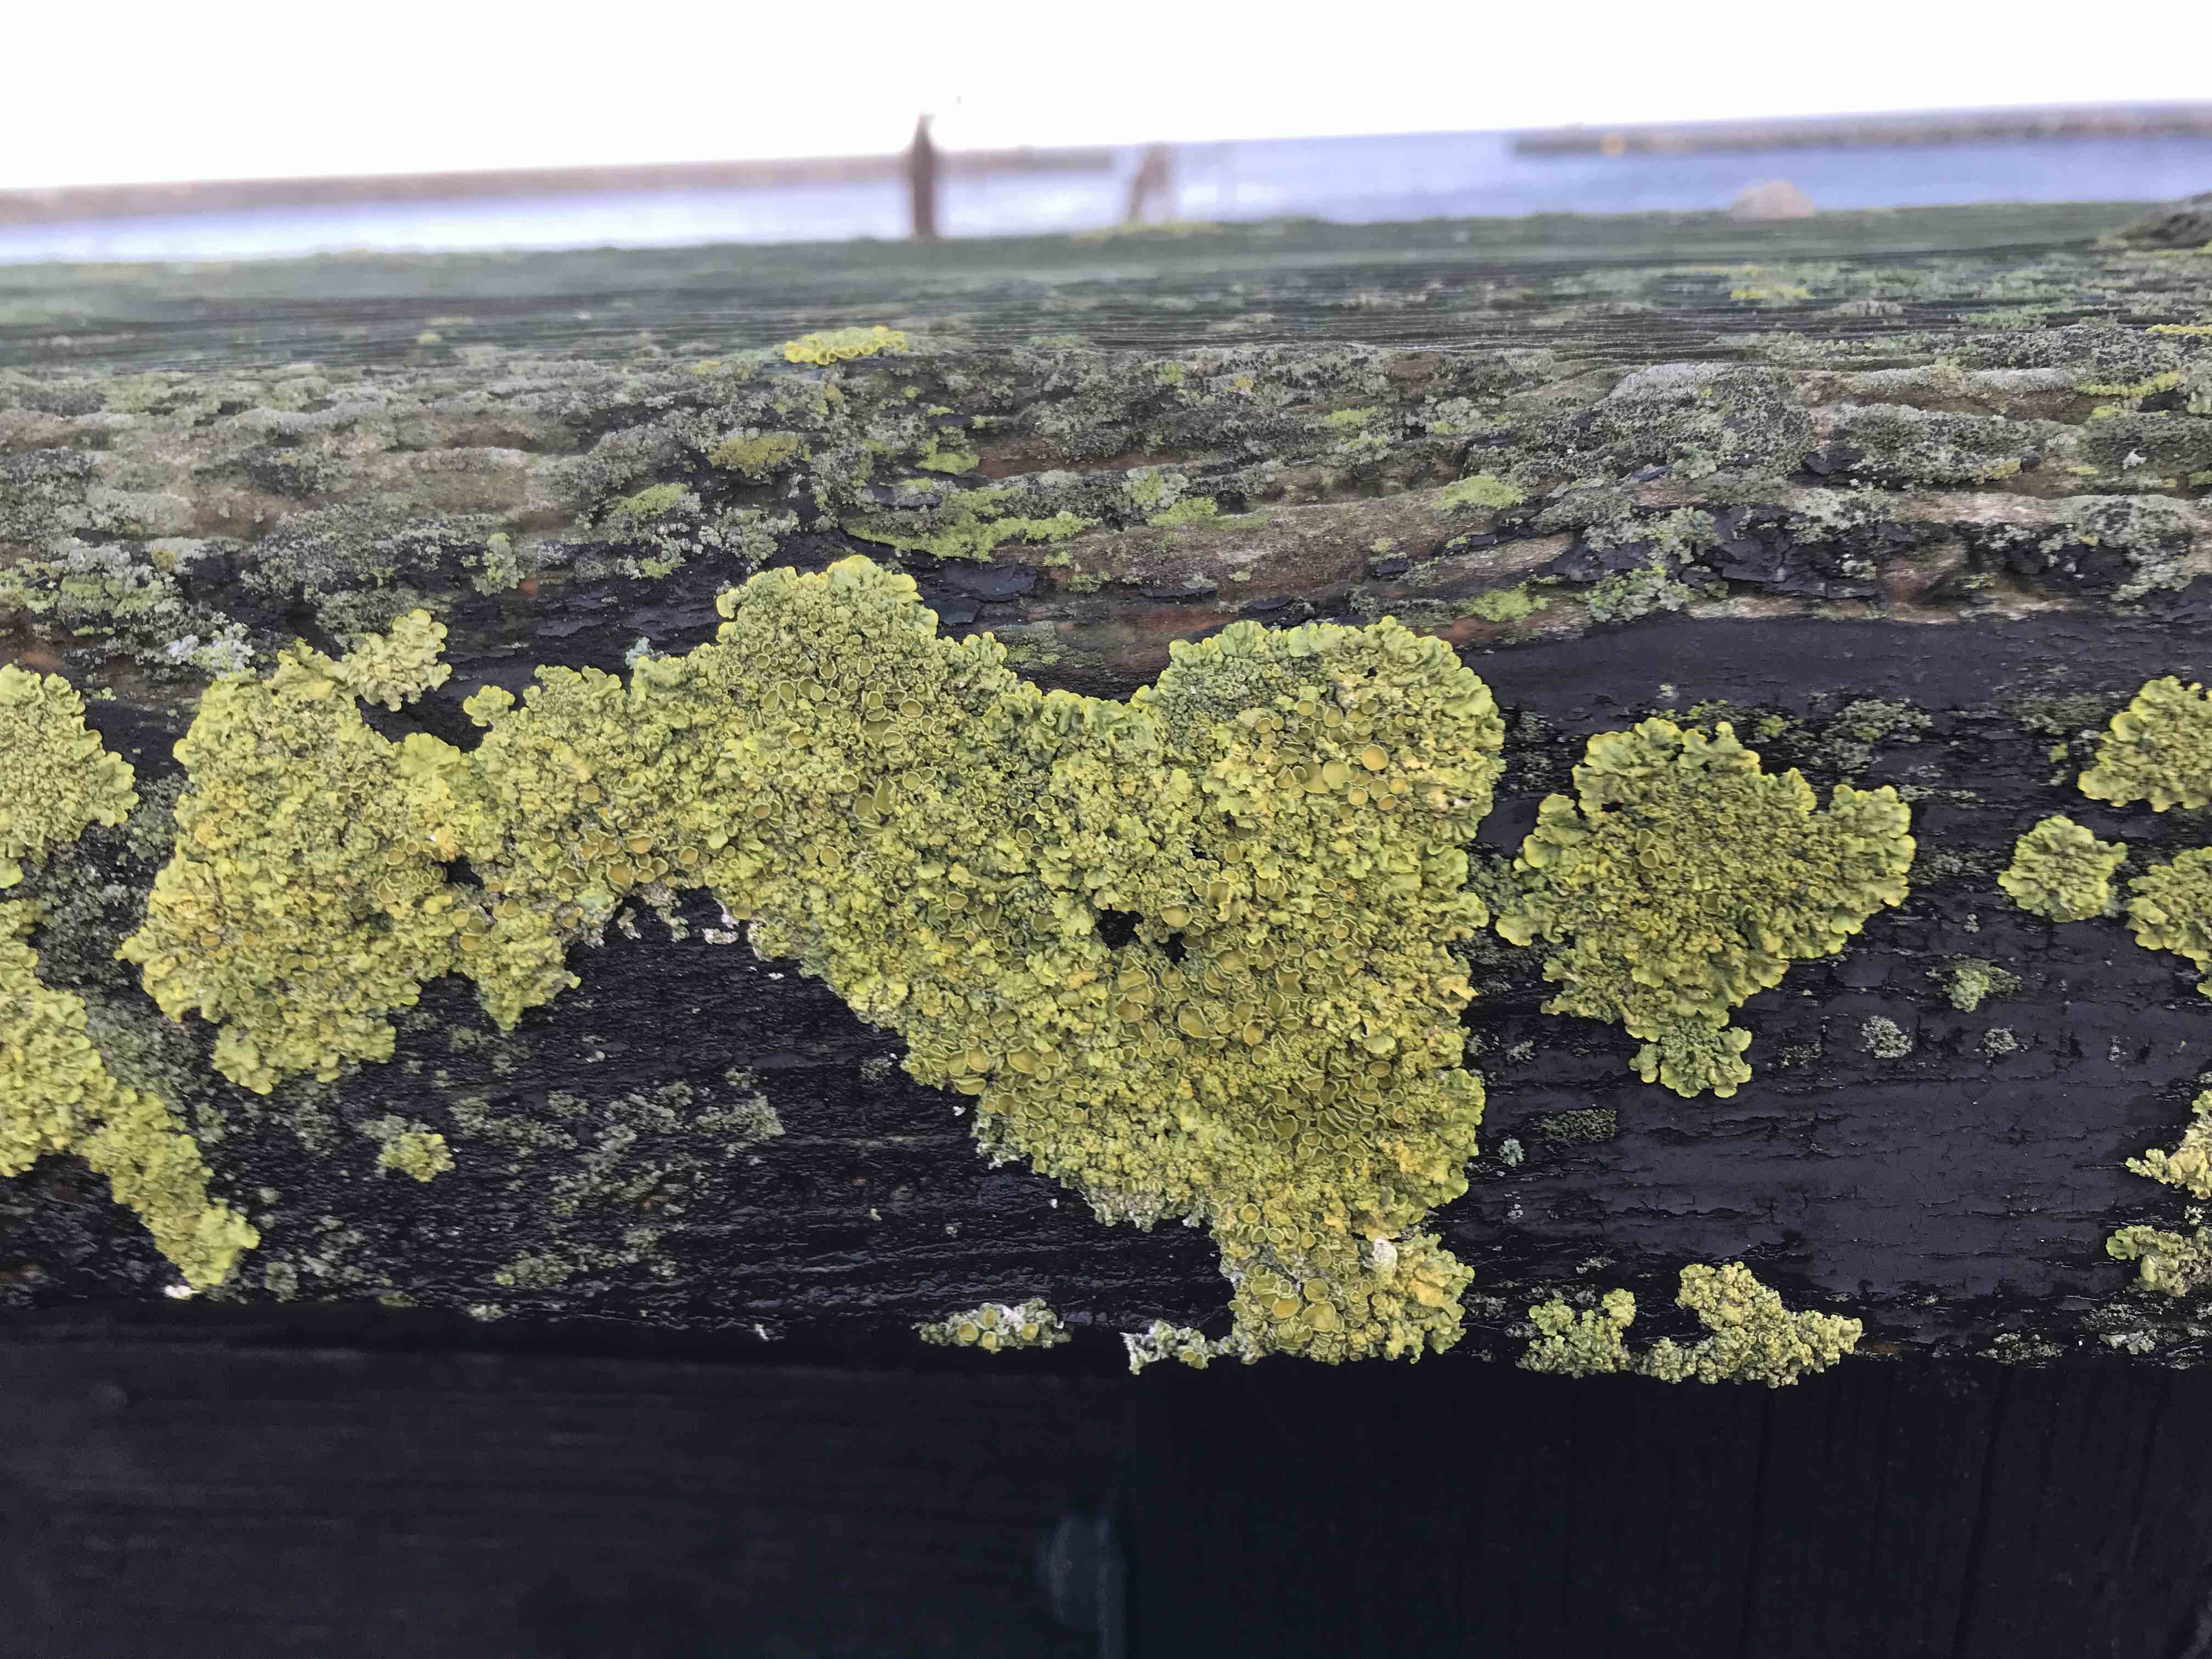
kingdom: Fungi
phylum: Ascomycota
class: Lecanoromycetes
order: Teloschistales
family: Teloschistaceae
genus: Xanthoria
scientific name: Xanthoria parietina
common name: almindelig væggelav
